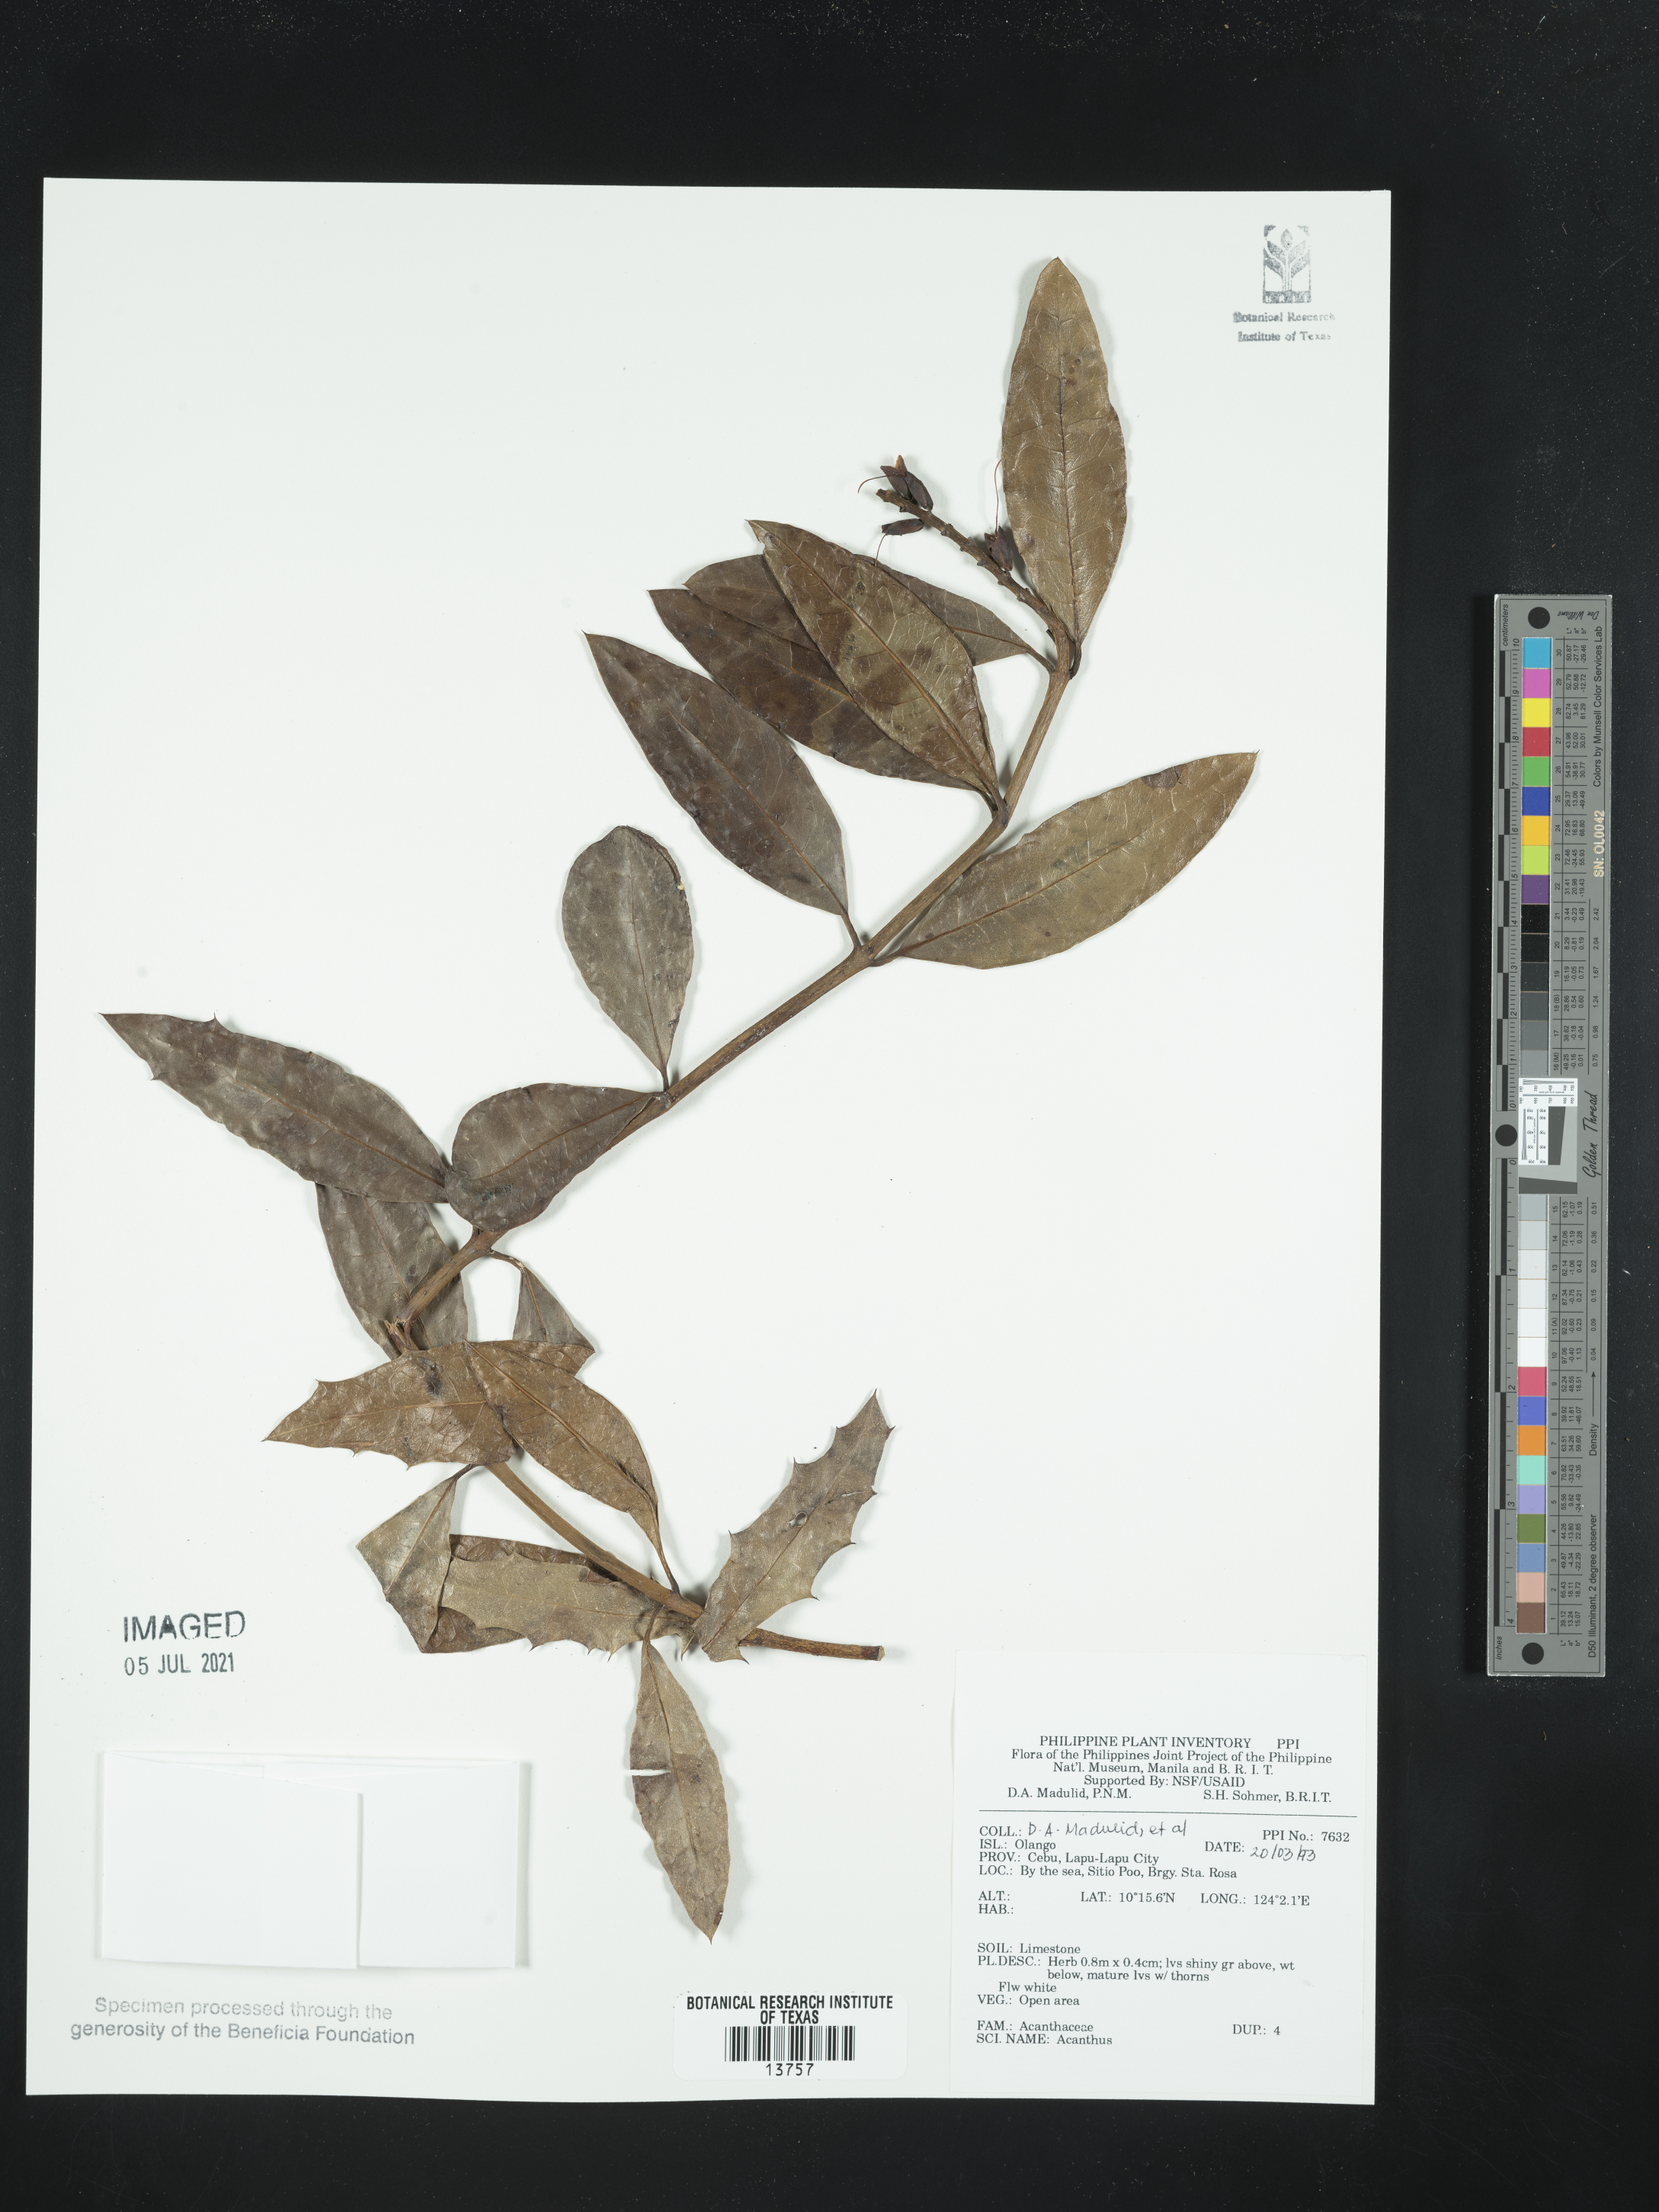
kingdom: Plantae
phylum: Tracheophyta
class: Magnoliopsida
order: Lamiales
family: Acanthaceae
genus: Acanthus
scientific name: Acanthus
